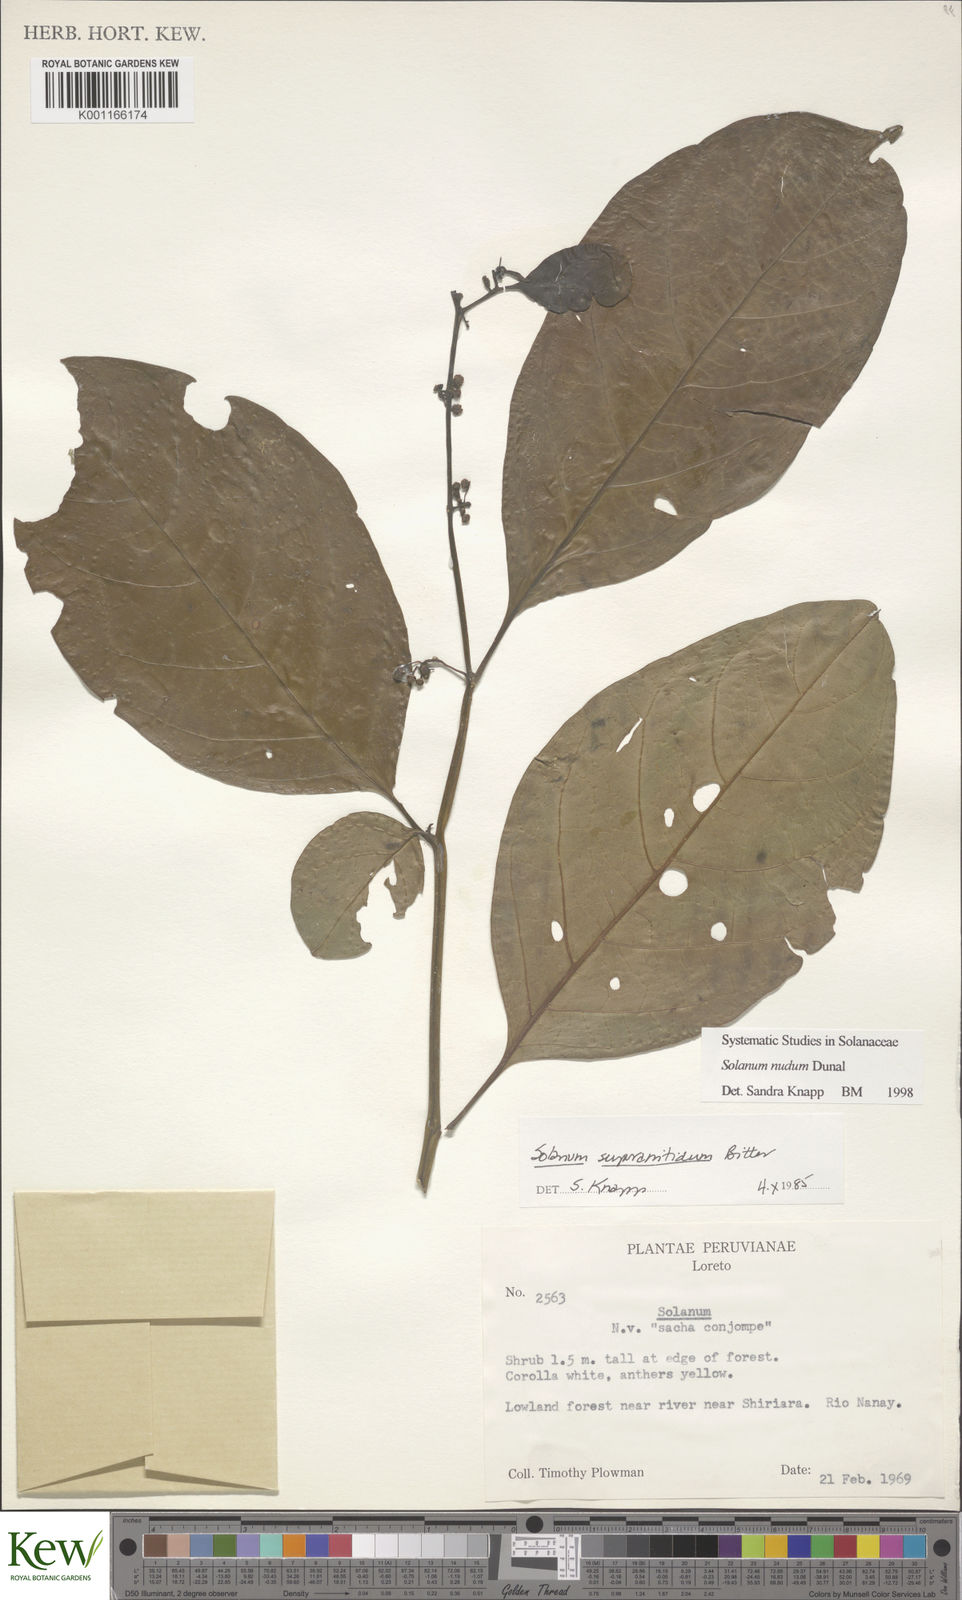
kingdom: Plantae
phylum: Tracheophyta
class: Magnoliopsida
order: Solanales
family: Solanaceae
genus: Solanum
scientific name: Solanum nudum
